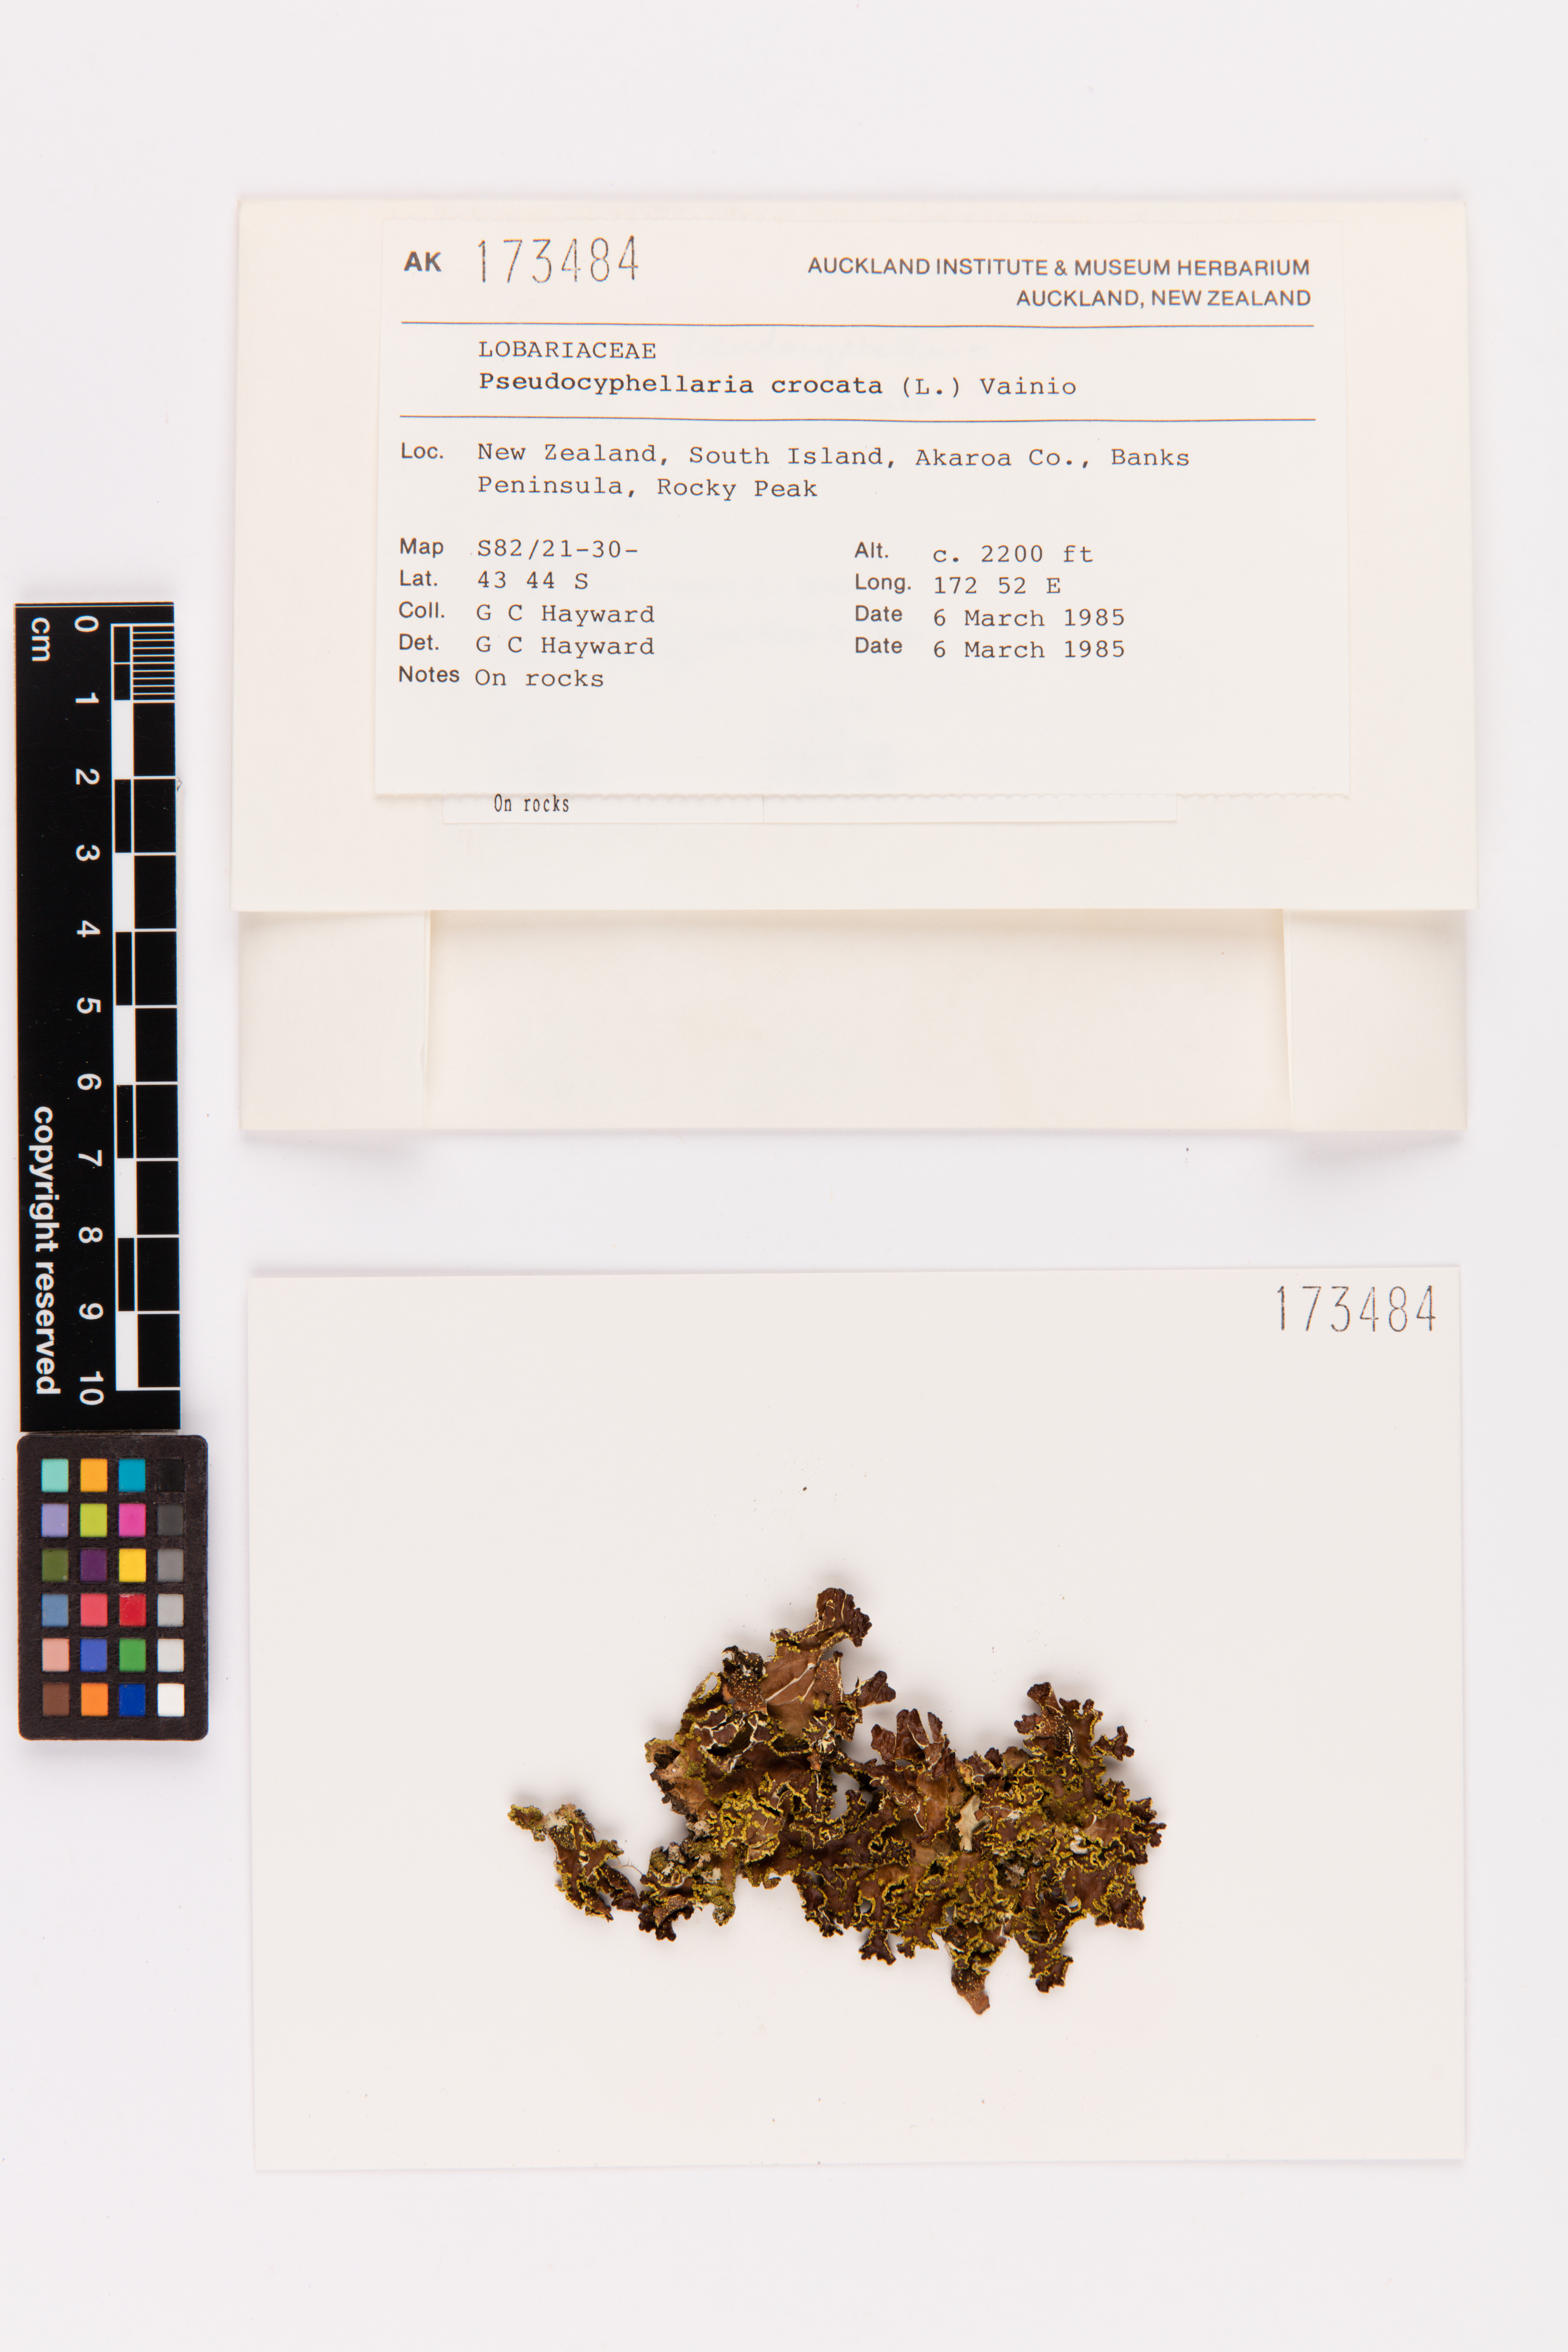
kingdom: Fungi
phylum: Ascomycota
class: Lecanoromycetes
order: Peltigerales
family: Lobariaceae
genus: Pseudocyphellaria
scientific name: Pseudocyphellaria crocata
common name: Golden specklebelly
